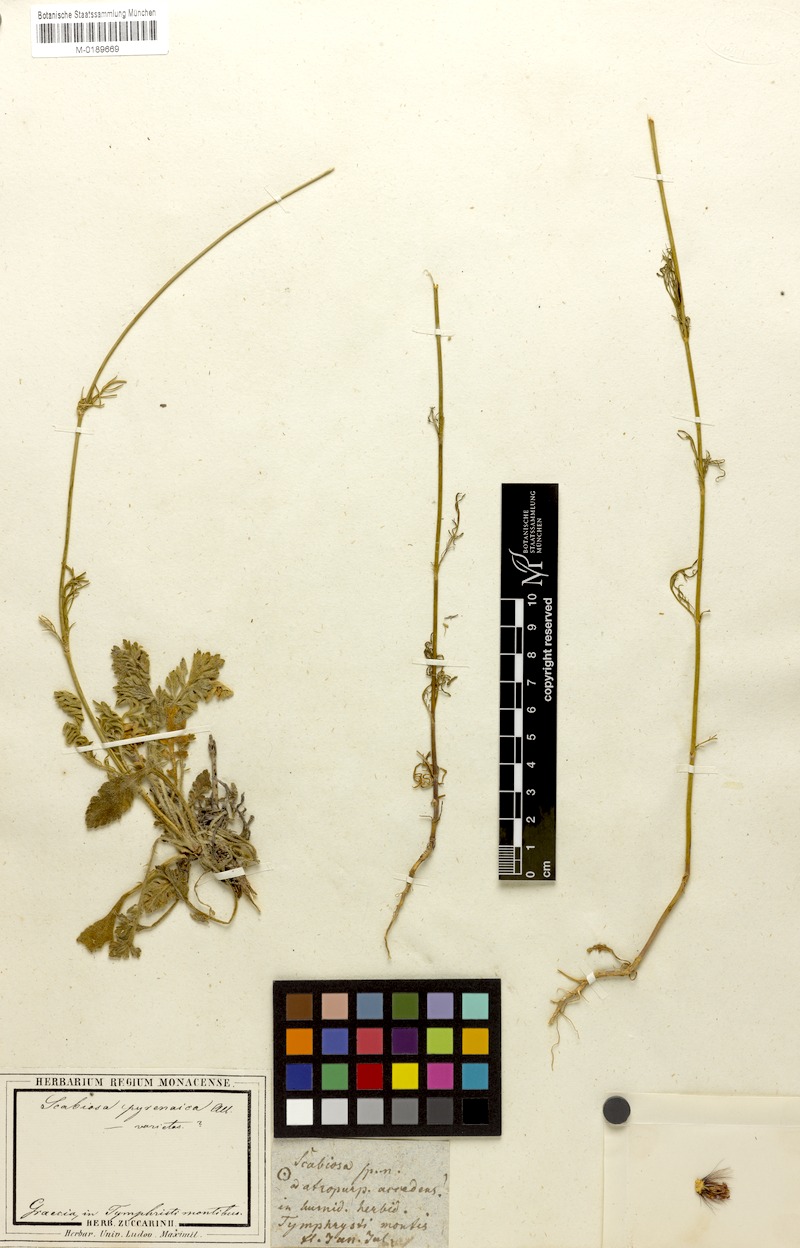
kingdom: Plantae
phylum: Tracheophyta
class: Magnoliopsida
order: Dipsacales
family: Caprifoliaceae
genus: Scabiosa
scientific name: Scabiosa webbiana
